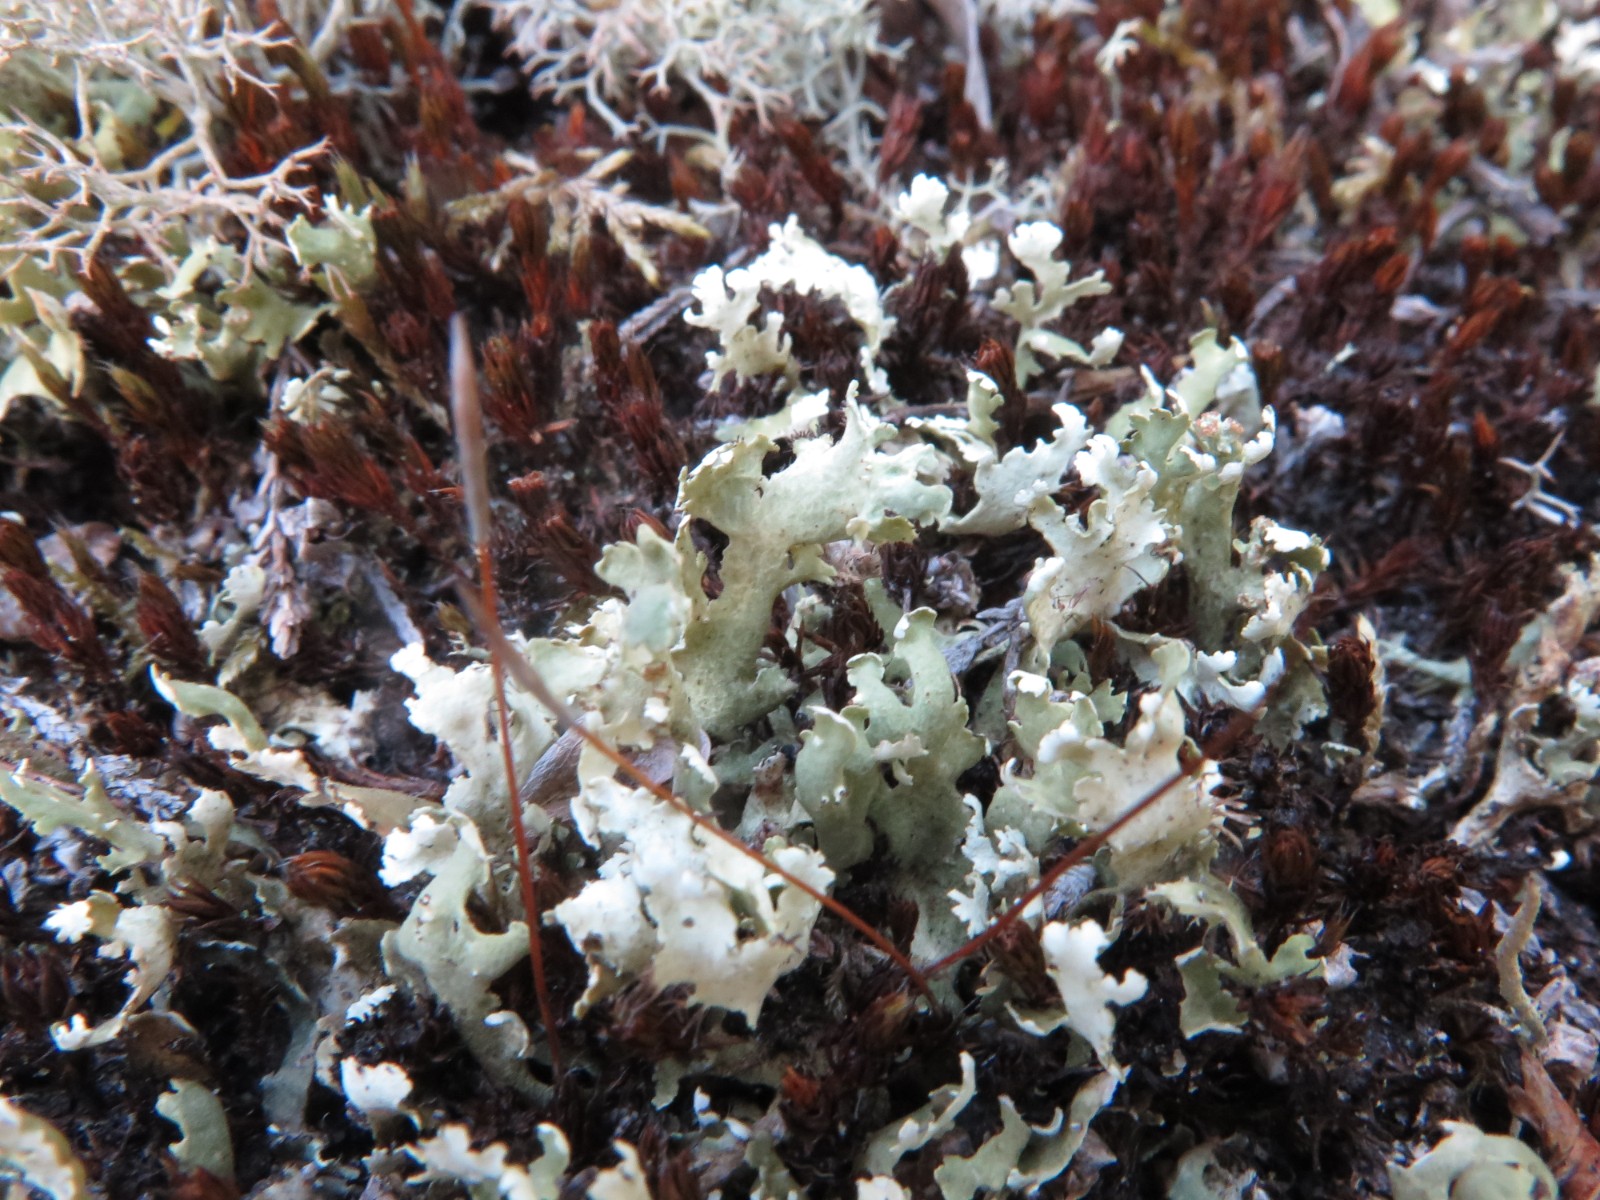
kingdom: Fungi
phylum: Ascomycota
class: Lecanoromycetes
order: Lecanorales
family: Cladoniaceae
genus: Cladonia
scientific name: Cladonia foliacea
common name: fliget bægerlav
